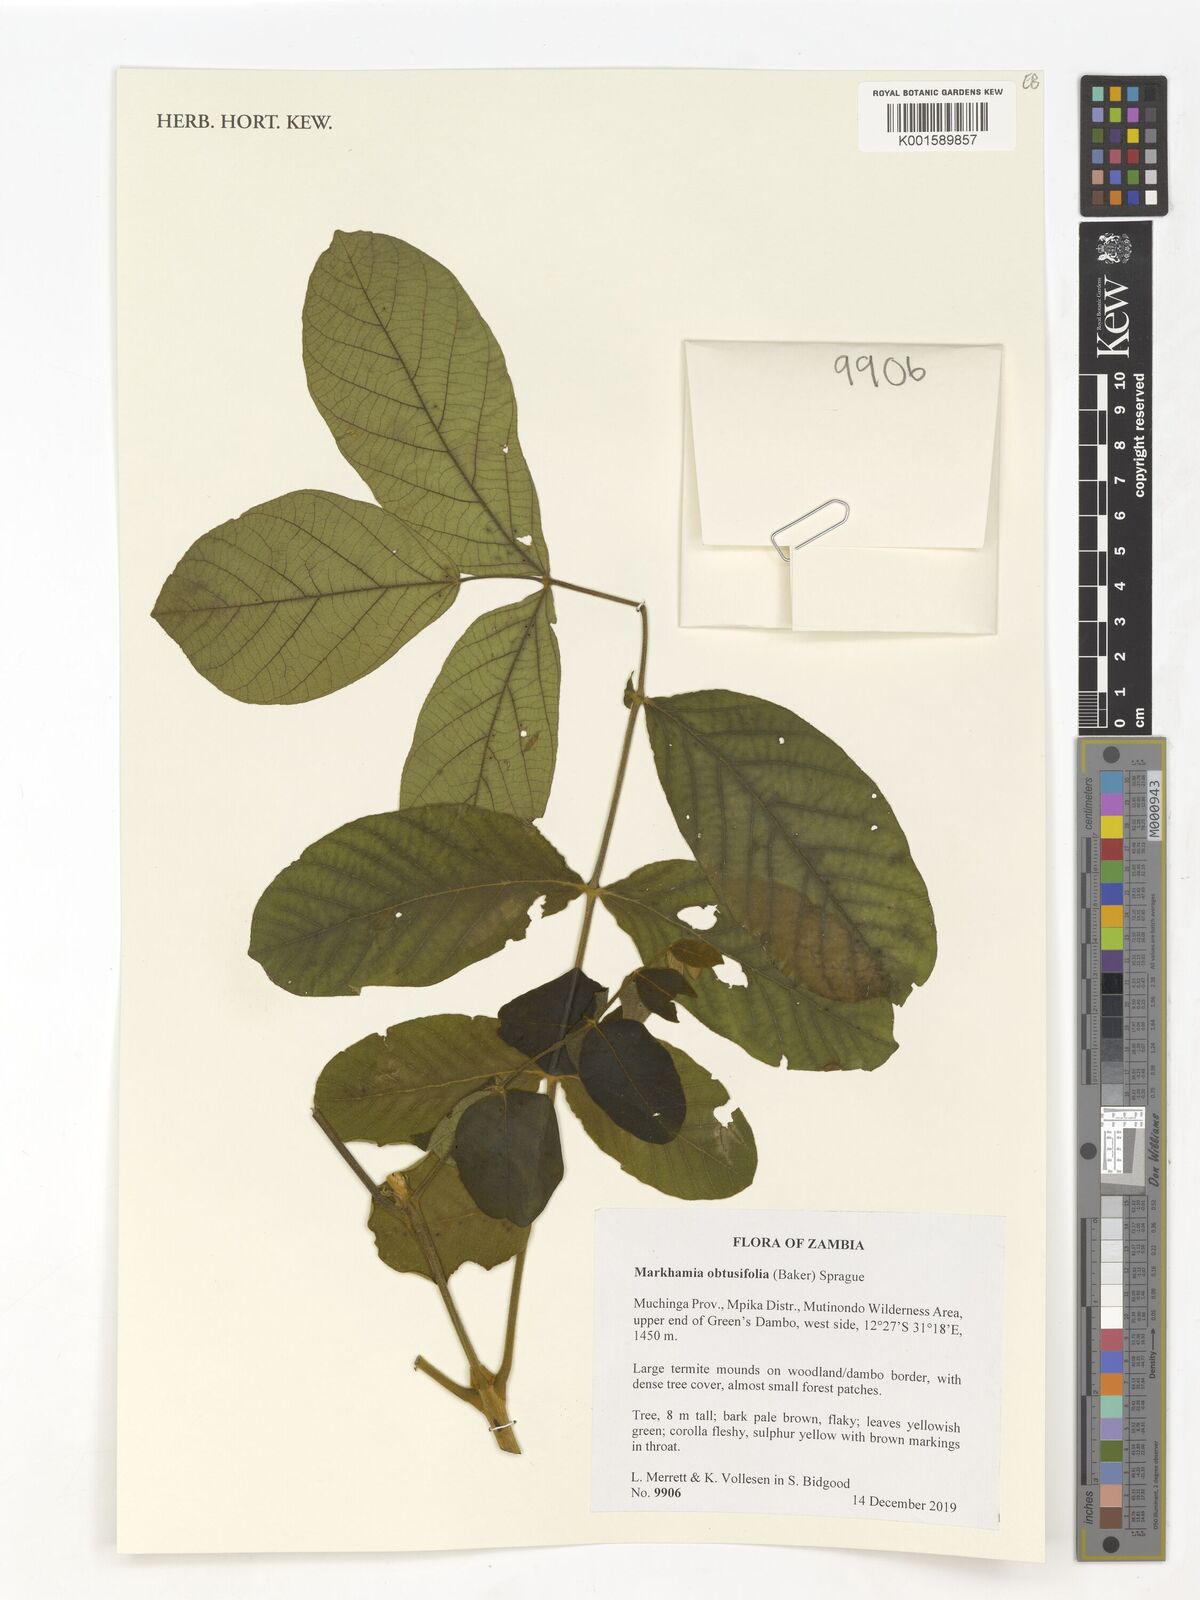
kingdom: Plantae
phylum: Tracheophyta
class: Magnoliopsida
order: Lamiales
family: Bignoniaceae
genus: Markhamia
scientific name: Markhamia obtusifolia
